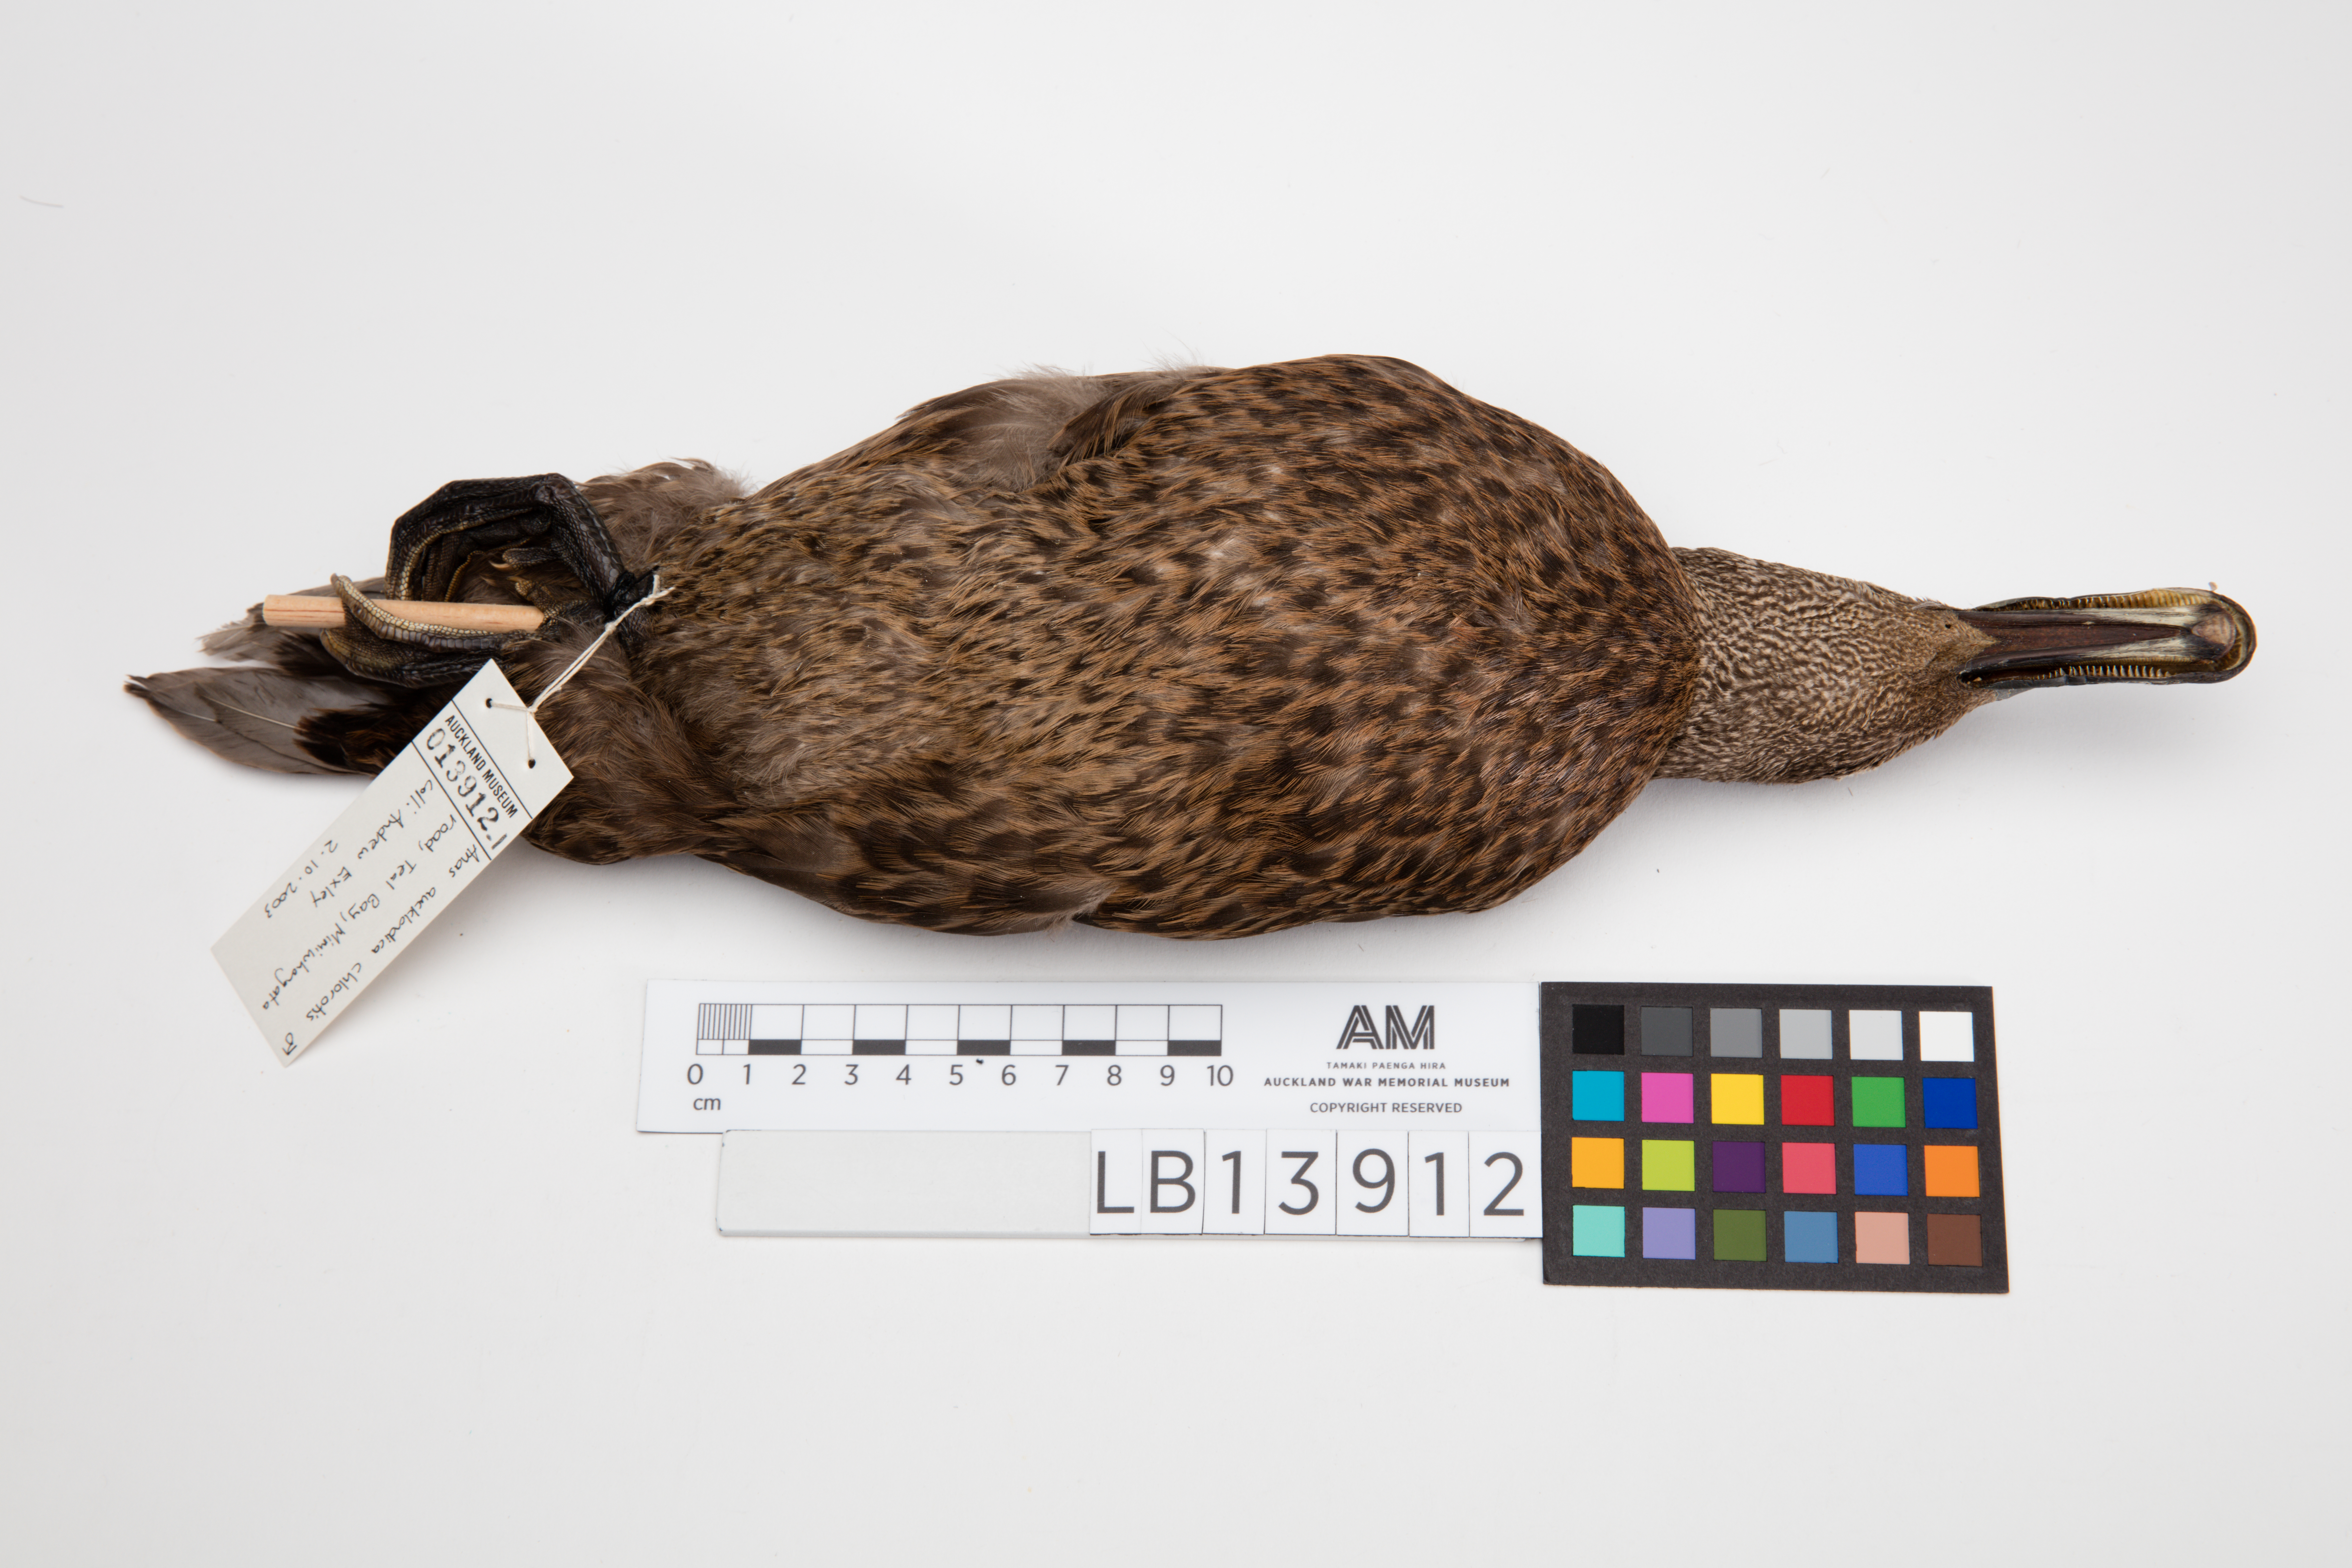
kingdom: Animalia
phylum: Chordata
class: Aves
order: Anseriformes
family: Anatidae
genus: Anas
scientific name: Anas chlorotis
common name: Brown teal
